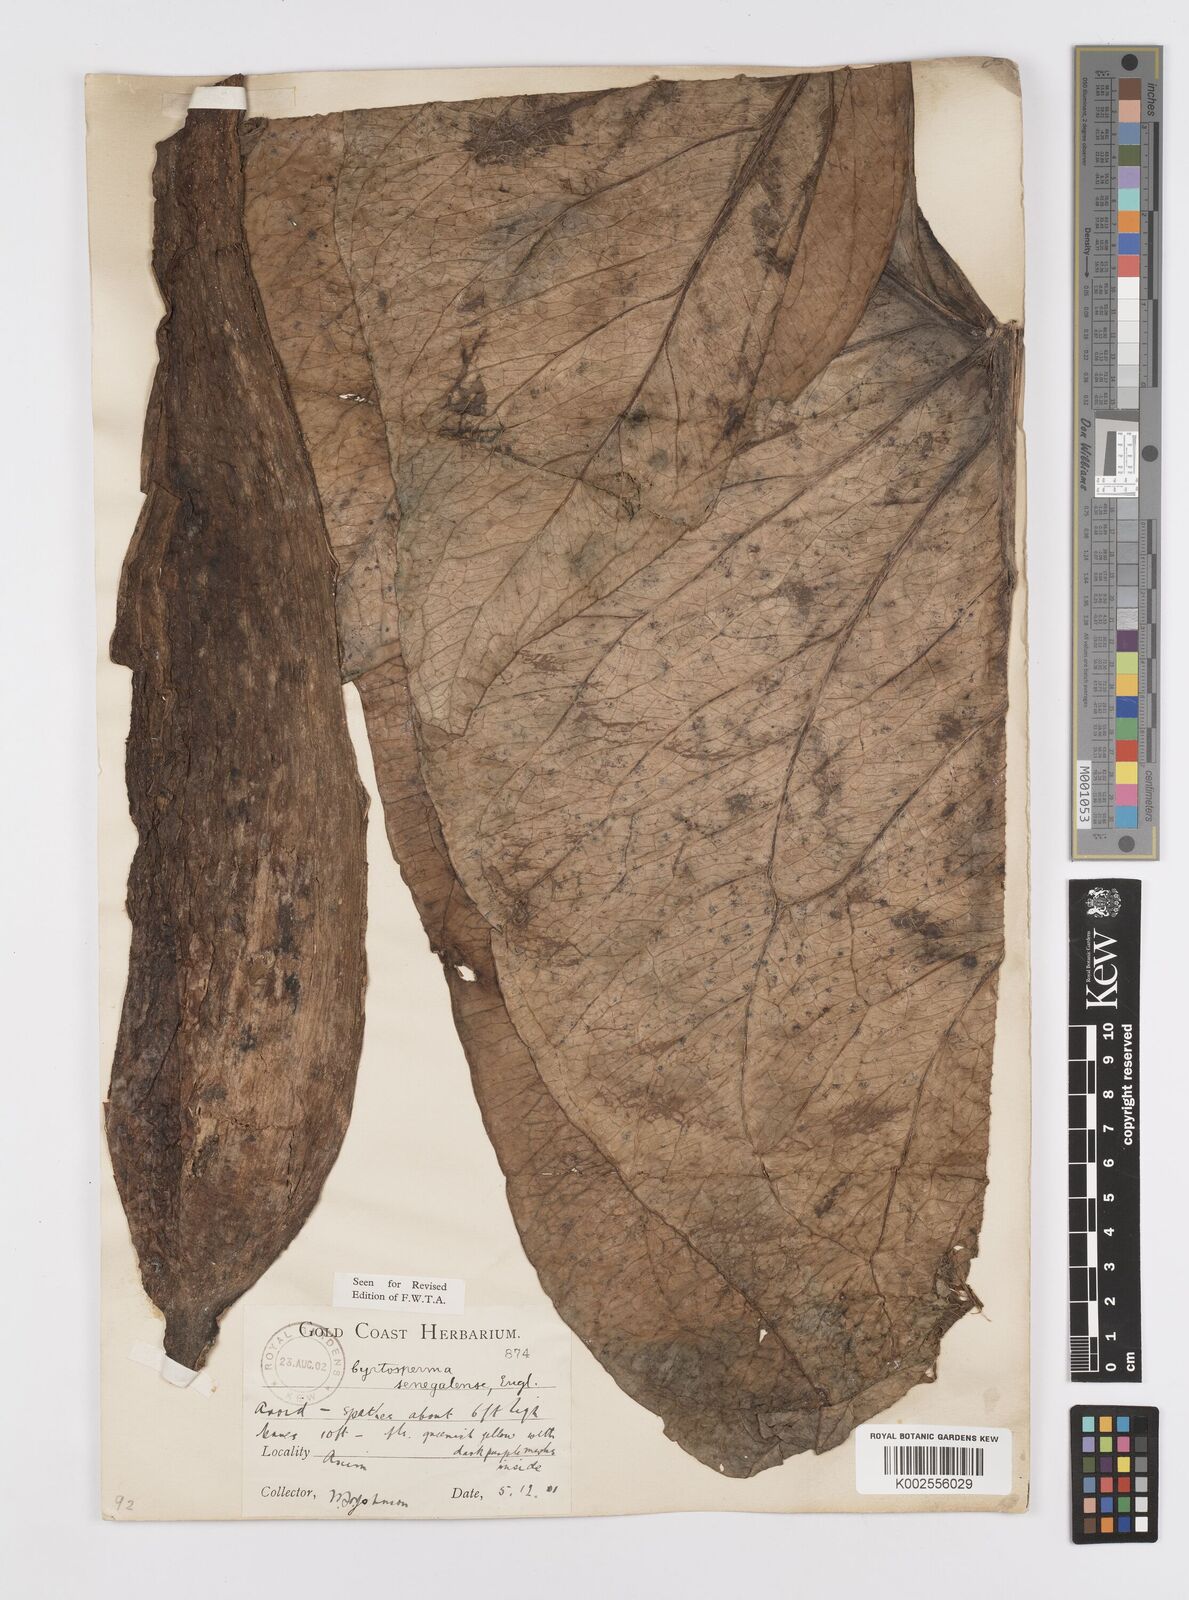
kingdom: Plantae
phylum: Tracheophyta
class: Liliopsida
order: Alismatales
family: Araceae
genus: Lasimorpha
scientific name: Lasimorpha senegalensis
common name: Swamp arum
